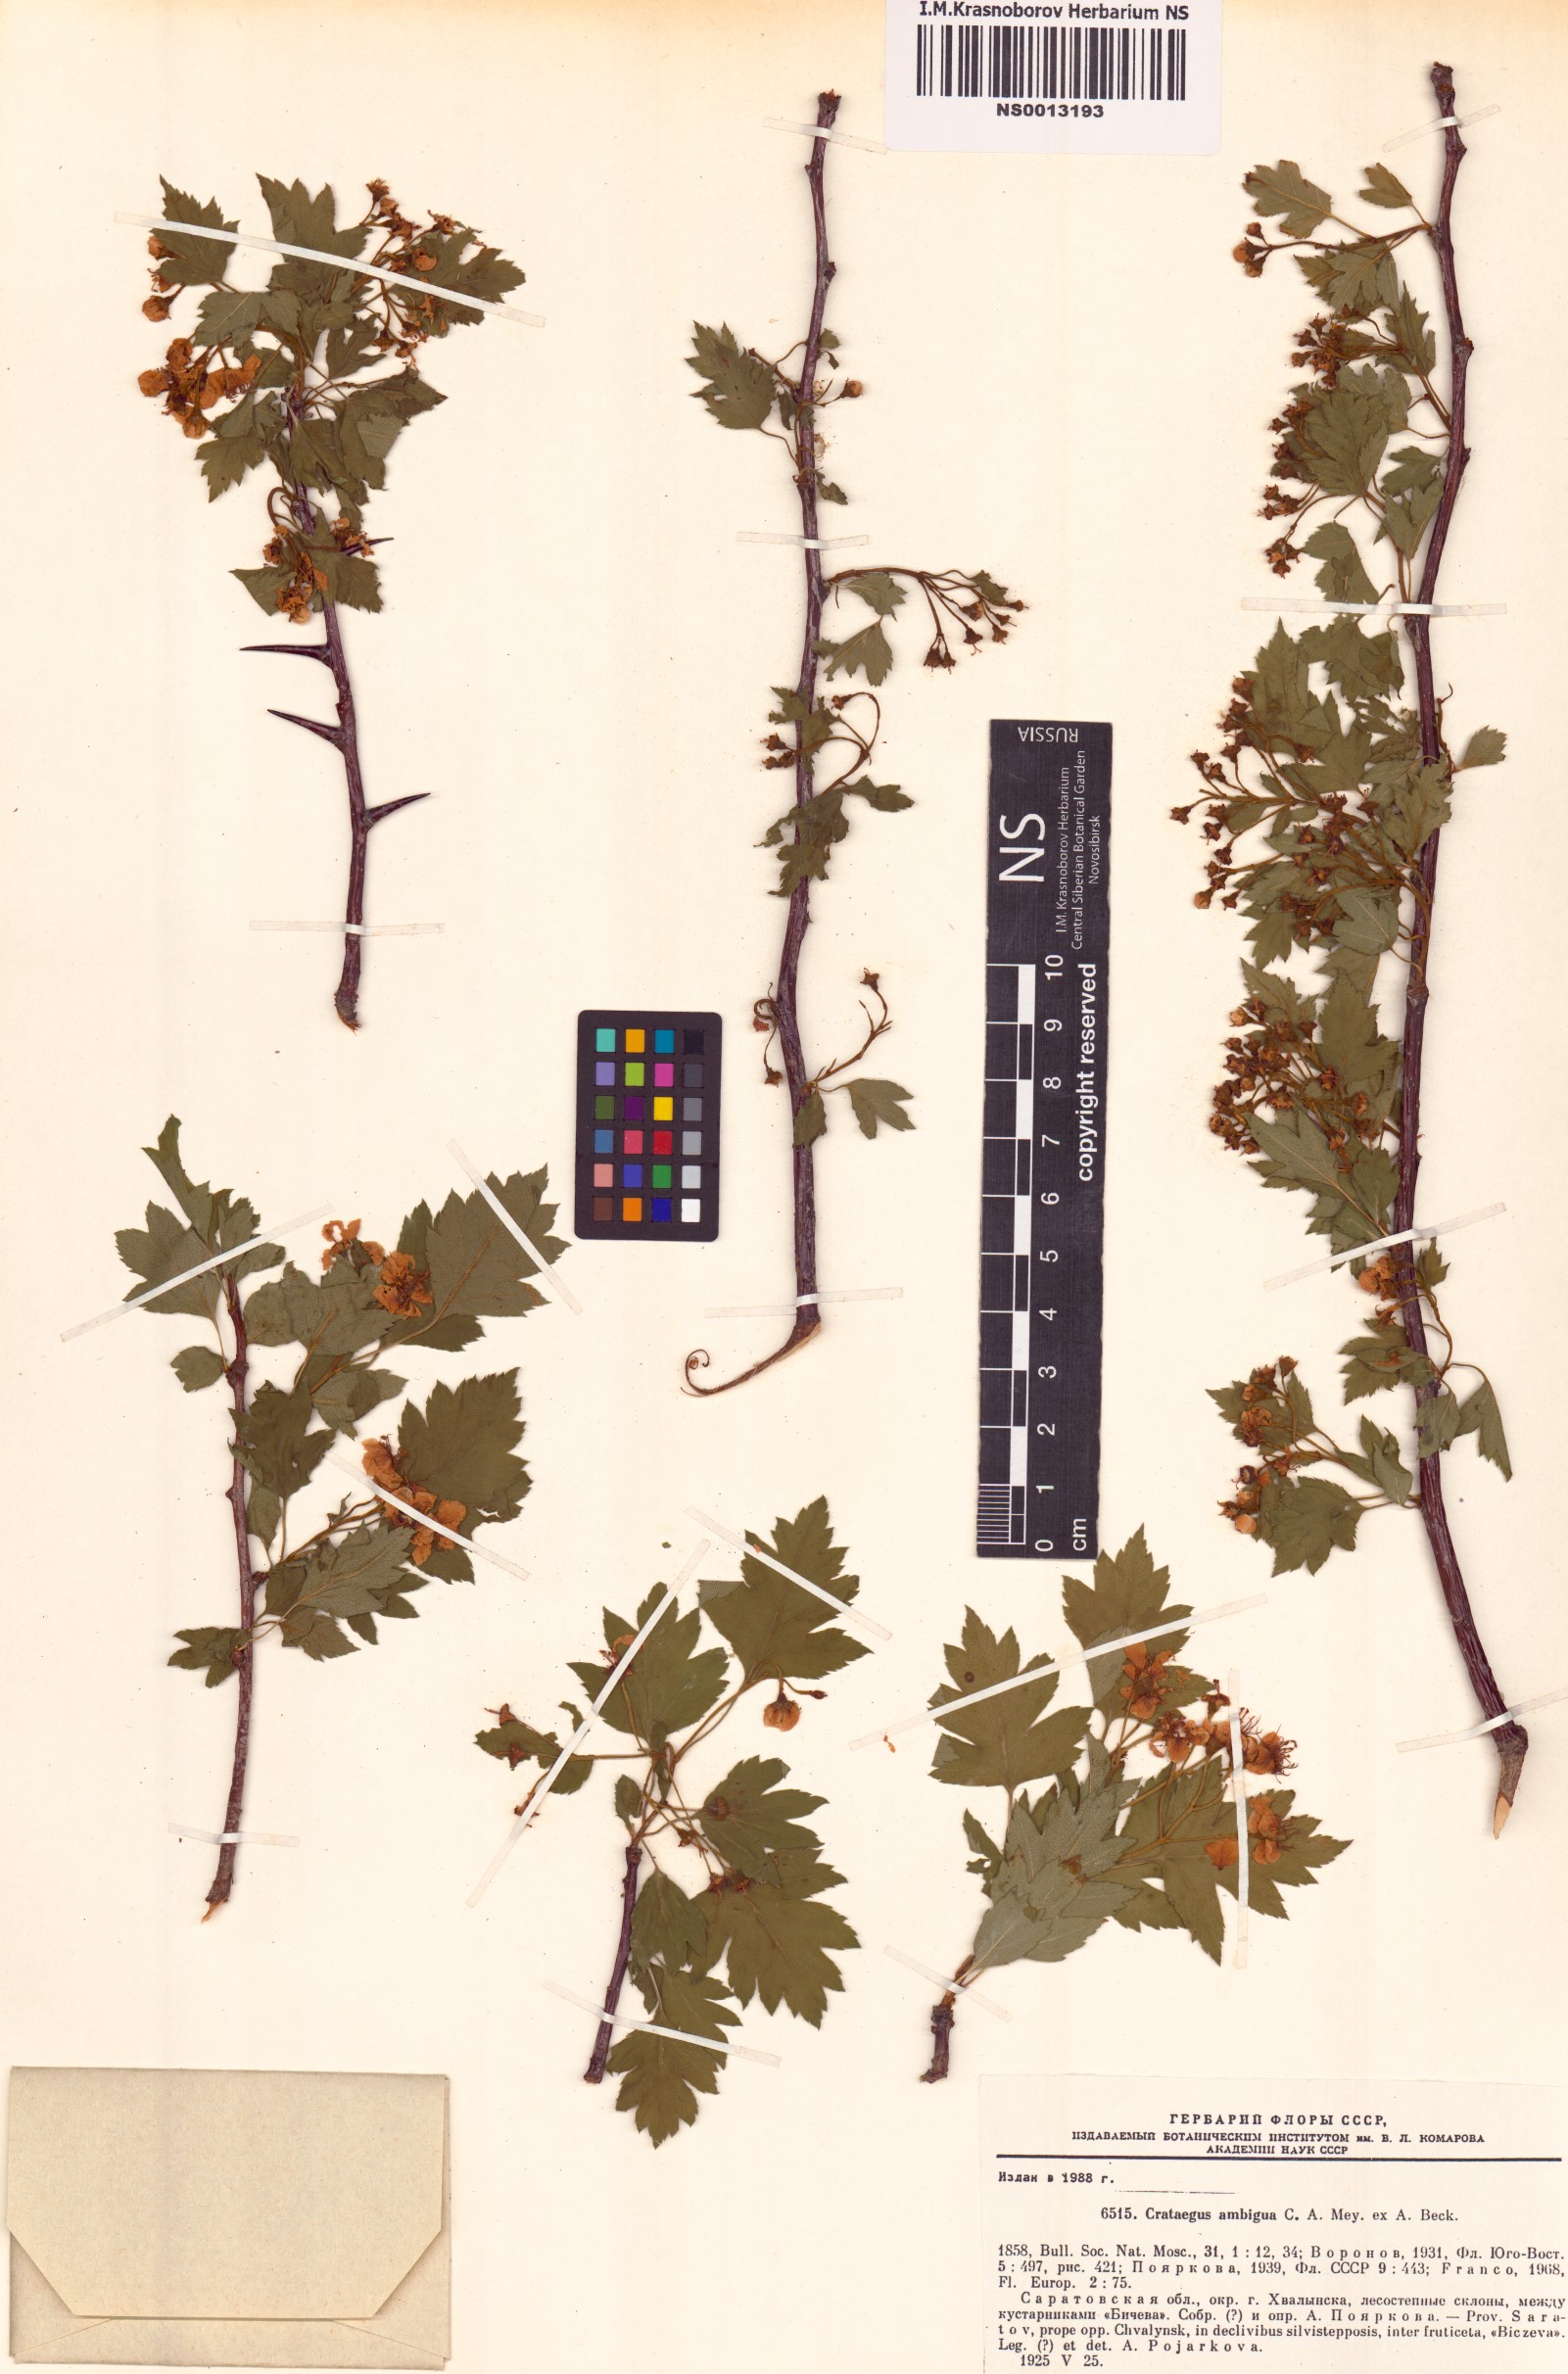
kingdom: Plantae
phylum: Tracheophyta
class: Magnoliopsida
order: Rosales
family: Rosaceae
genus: Crataegus
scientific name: Crataegus ambigua
